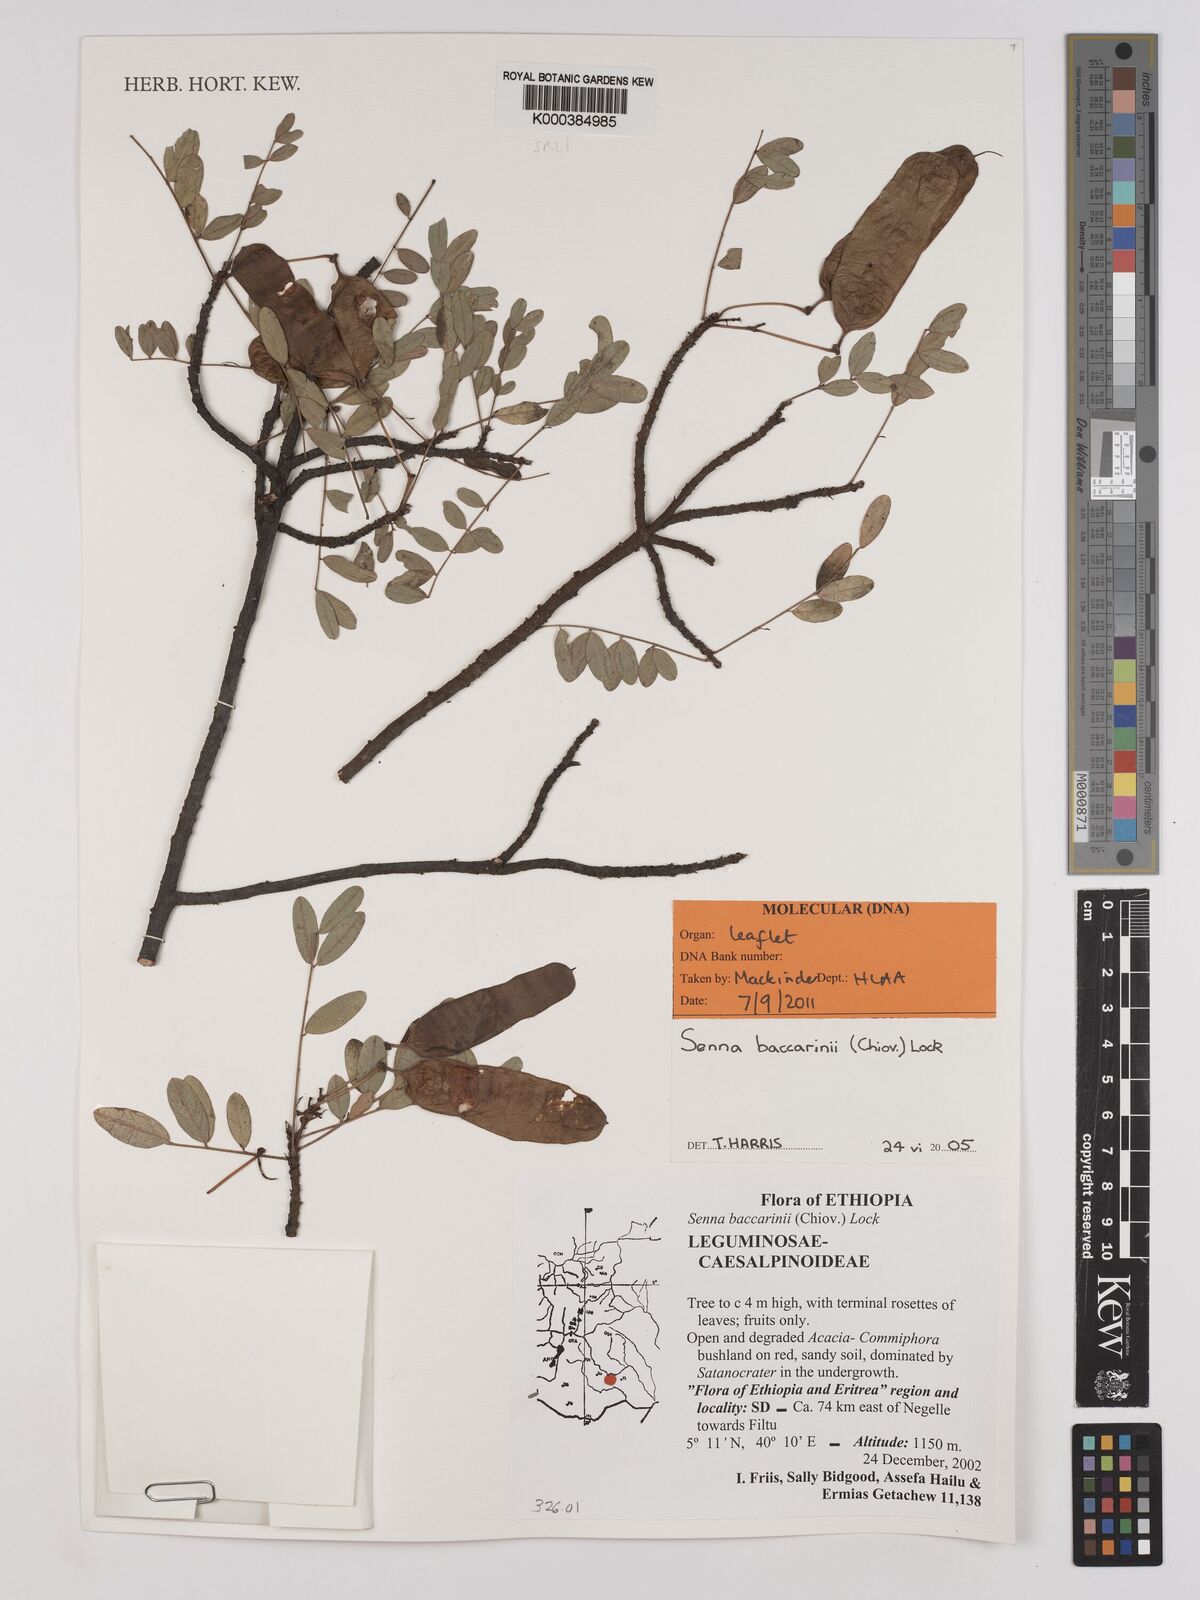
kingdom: Plantae
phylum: Tracheophyta
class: Magnoliopsida
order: Fabales
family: Fabaceae
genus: Senna
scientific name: Senna baccarinii
